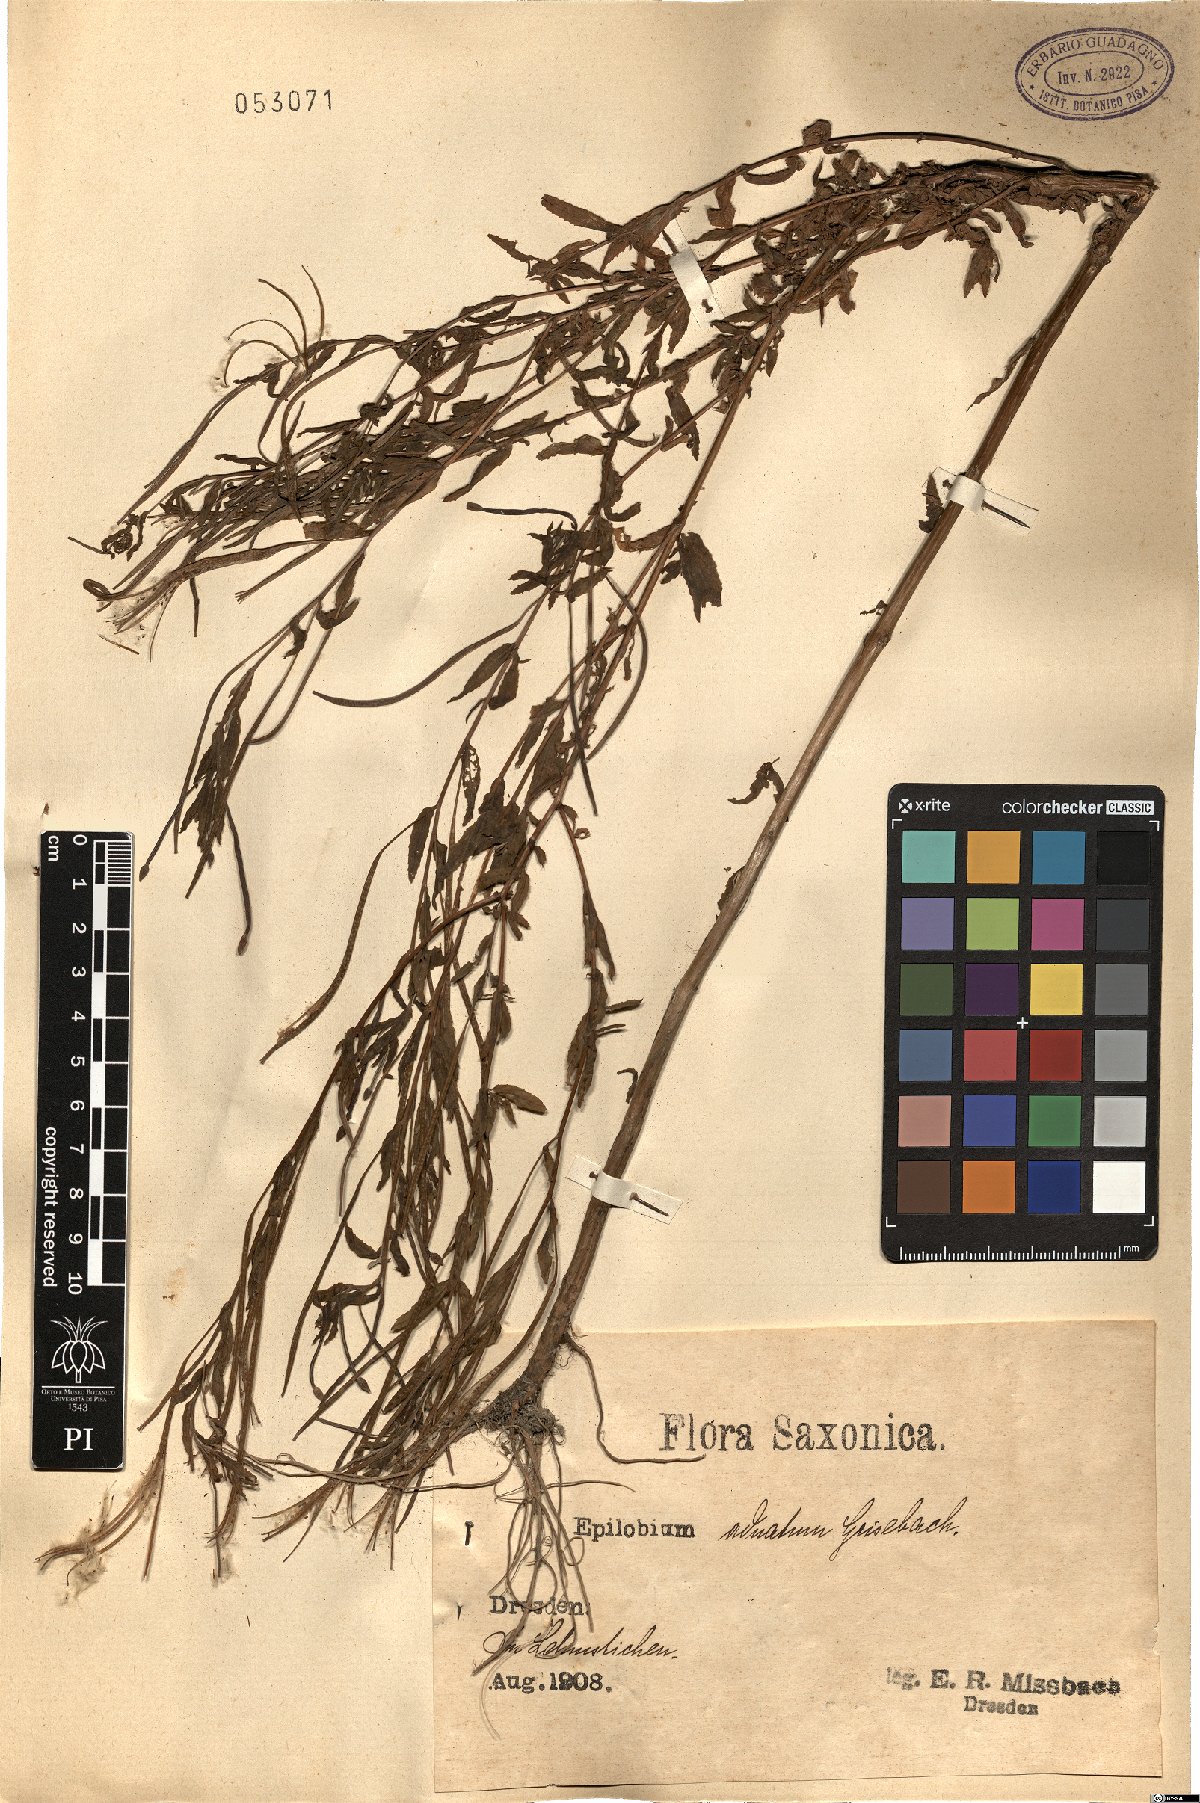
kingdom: Plantae
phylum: Tracheophyta
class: Magnoliopsida
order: Myrtales
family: Onagraceae
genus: Epilobium
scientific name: Epilobium tetragonum
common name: Square-stemmed willowherb
